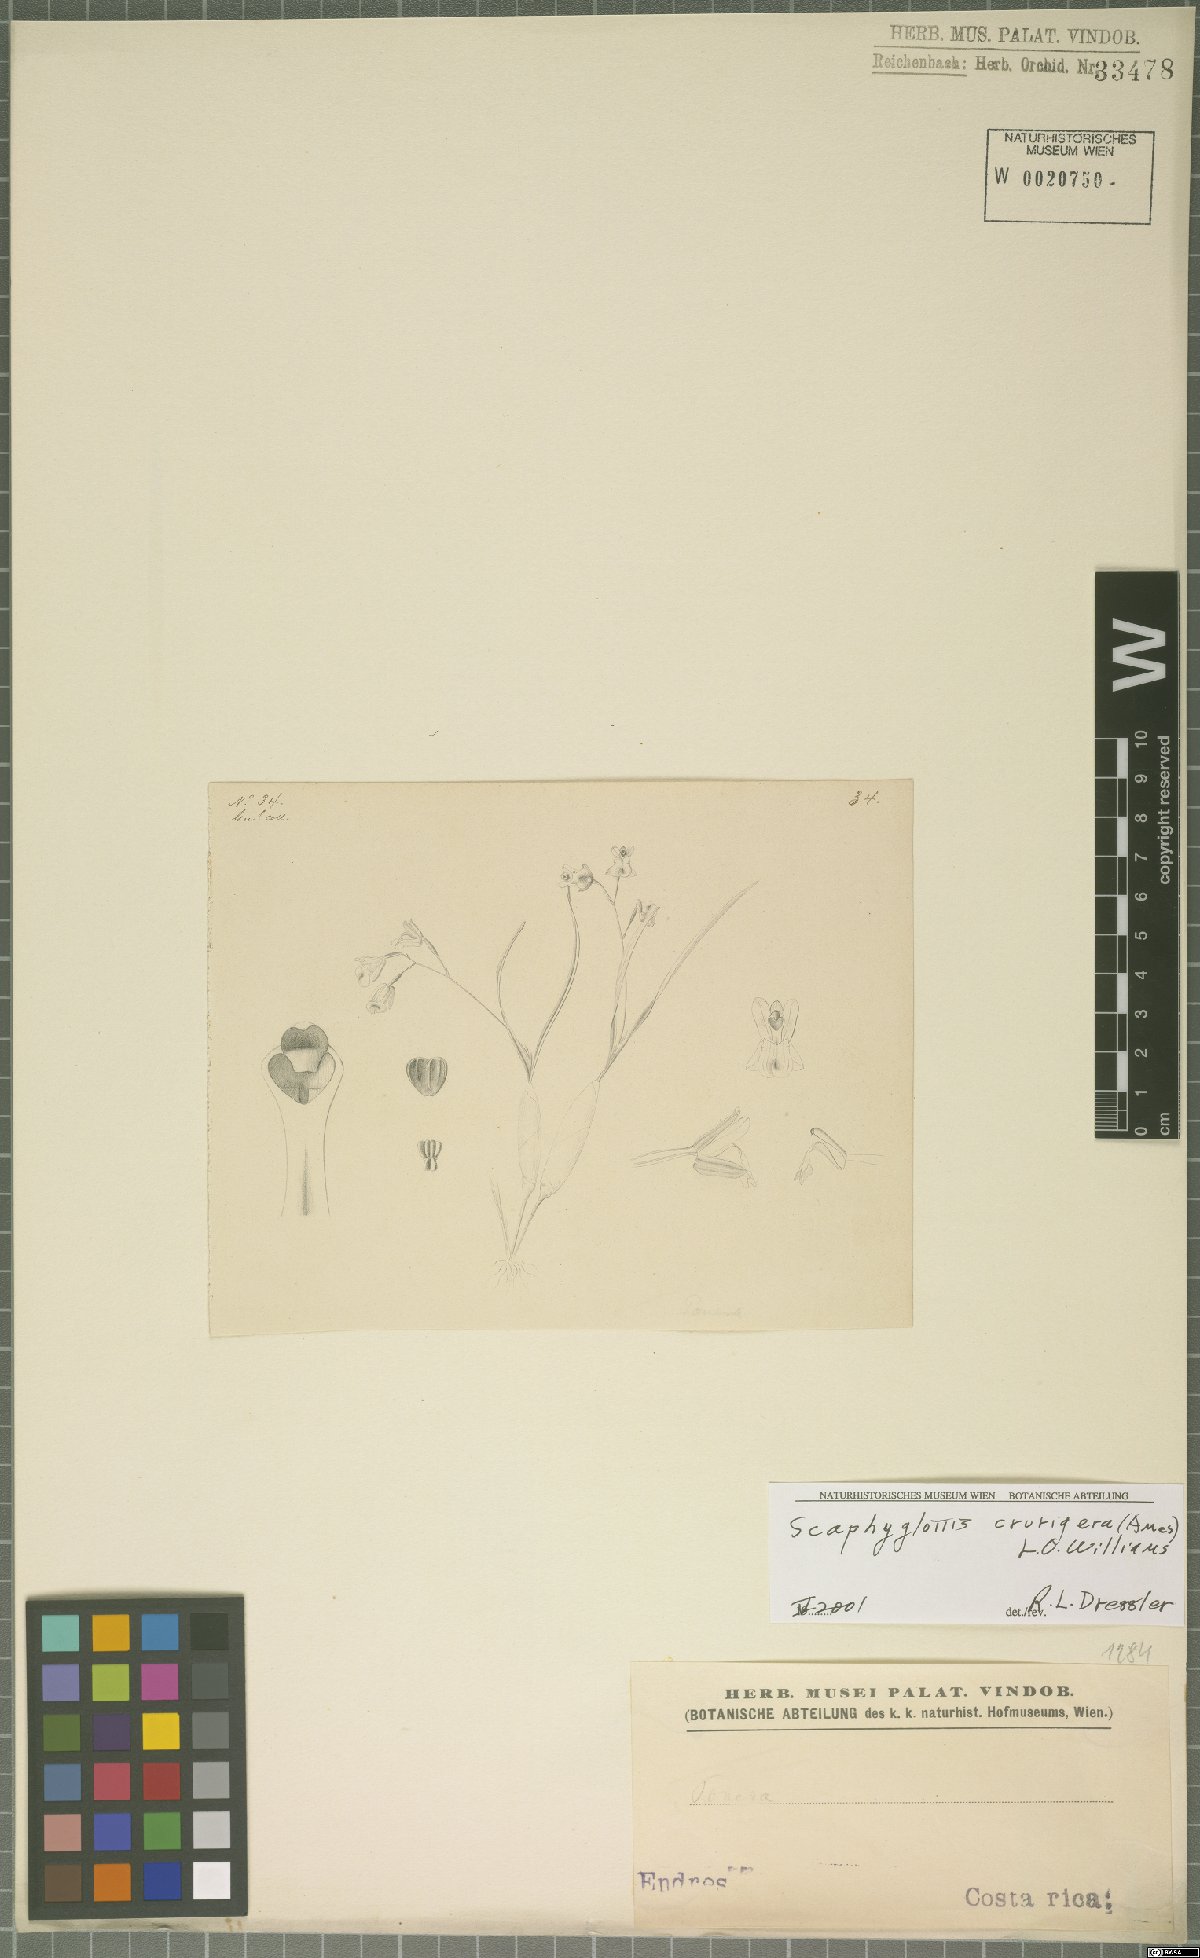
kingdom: Plantae
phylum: Tracheophyta
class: Liliopsida
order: Asparagales
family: Orchidaceae
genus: Scaphyglottis
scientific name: Scaphyglottis crurigera
